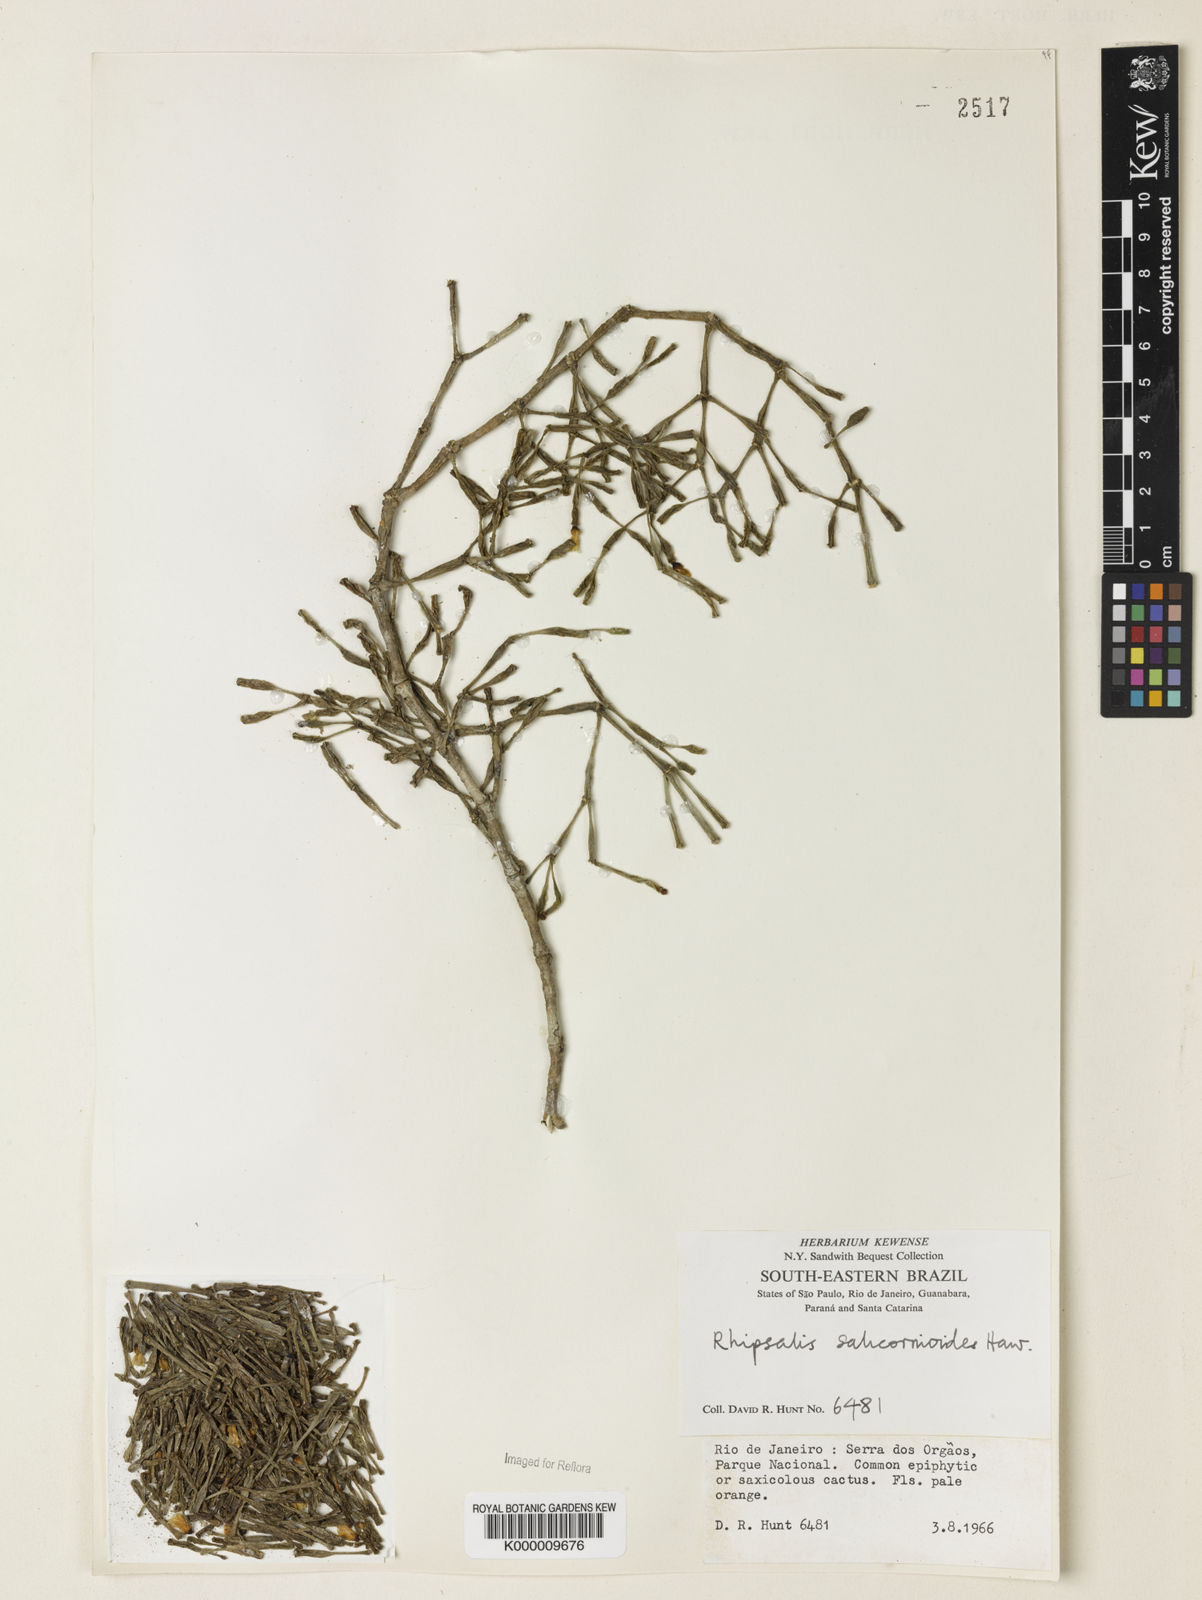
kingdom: Plantae
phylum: Tracheophyta
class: Magnoliopsida
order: Caryophyllales
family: Cactaceae
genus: Hatiora
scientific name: Hatiora
